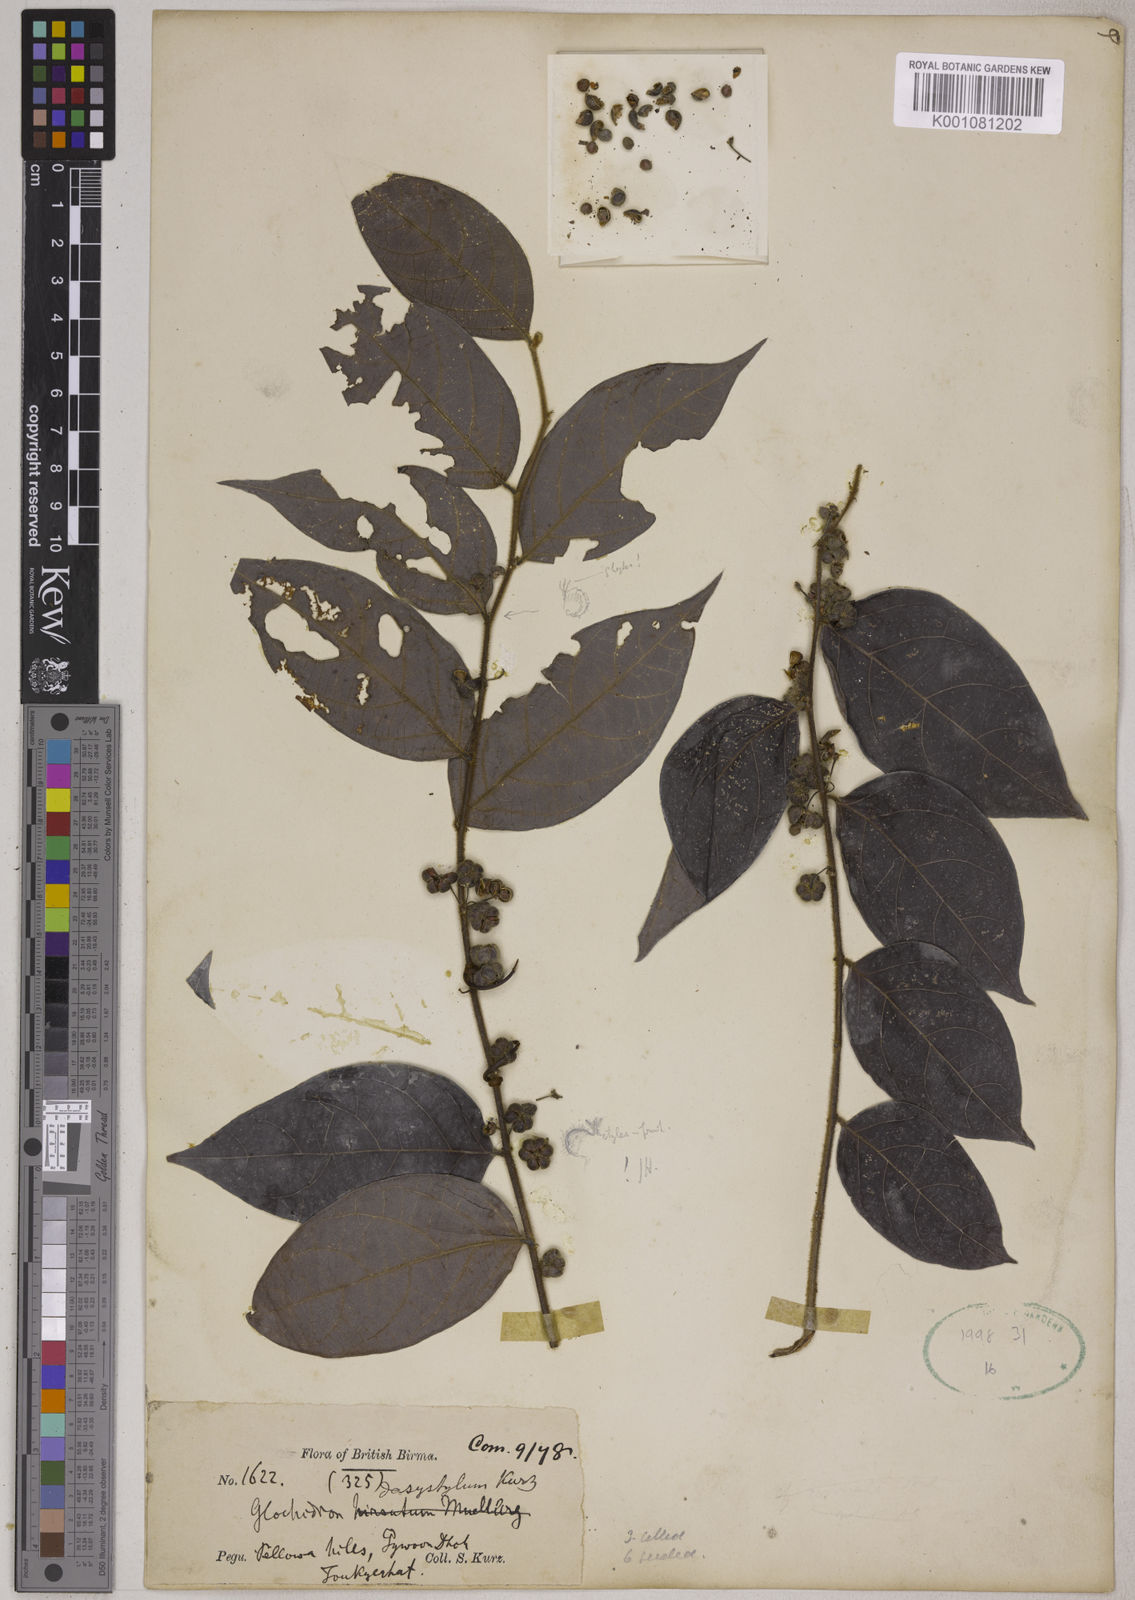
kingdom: Plantae
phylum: Tracheophyta
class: Magnoliopsida
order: Malpighiales
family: Phyllanthaceae
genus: Glochidion
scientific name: Glochidion dasystylum
